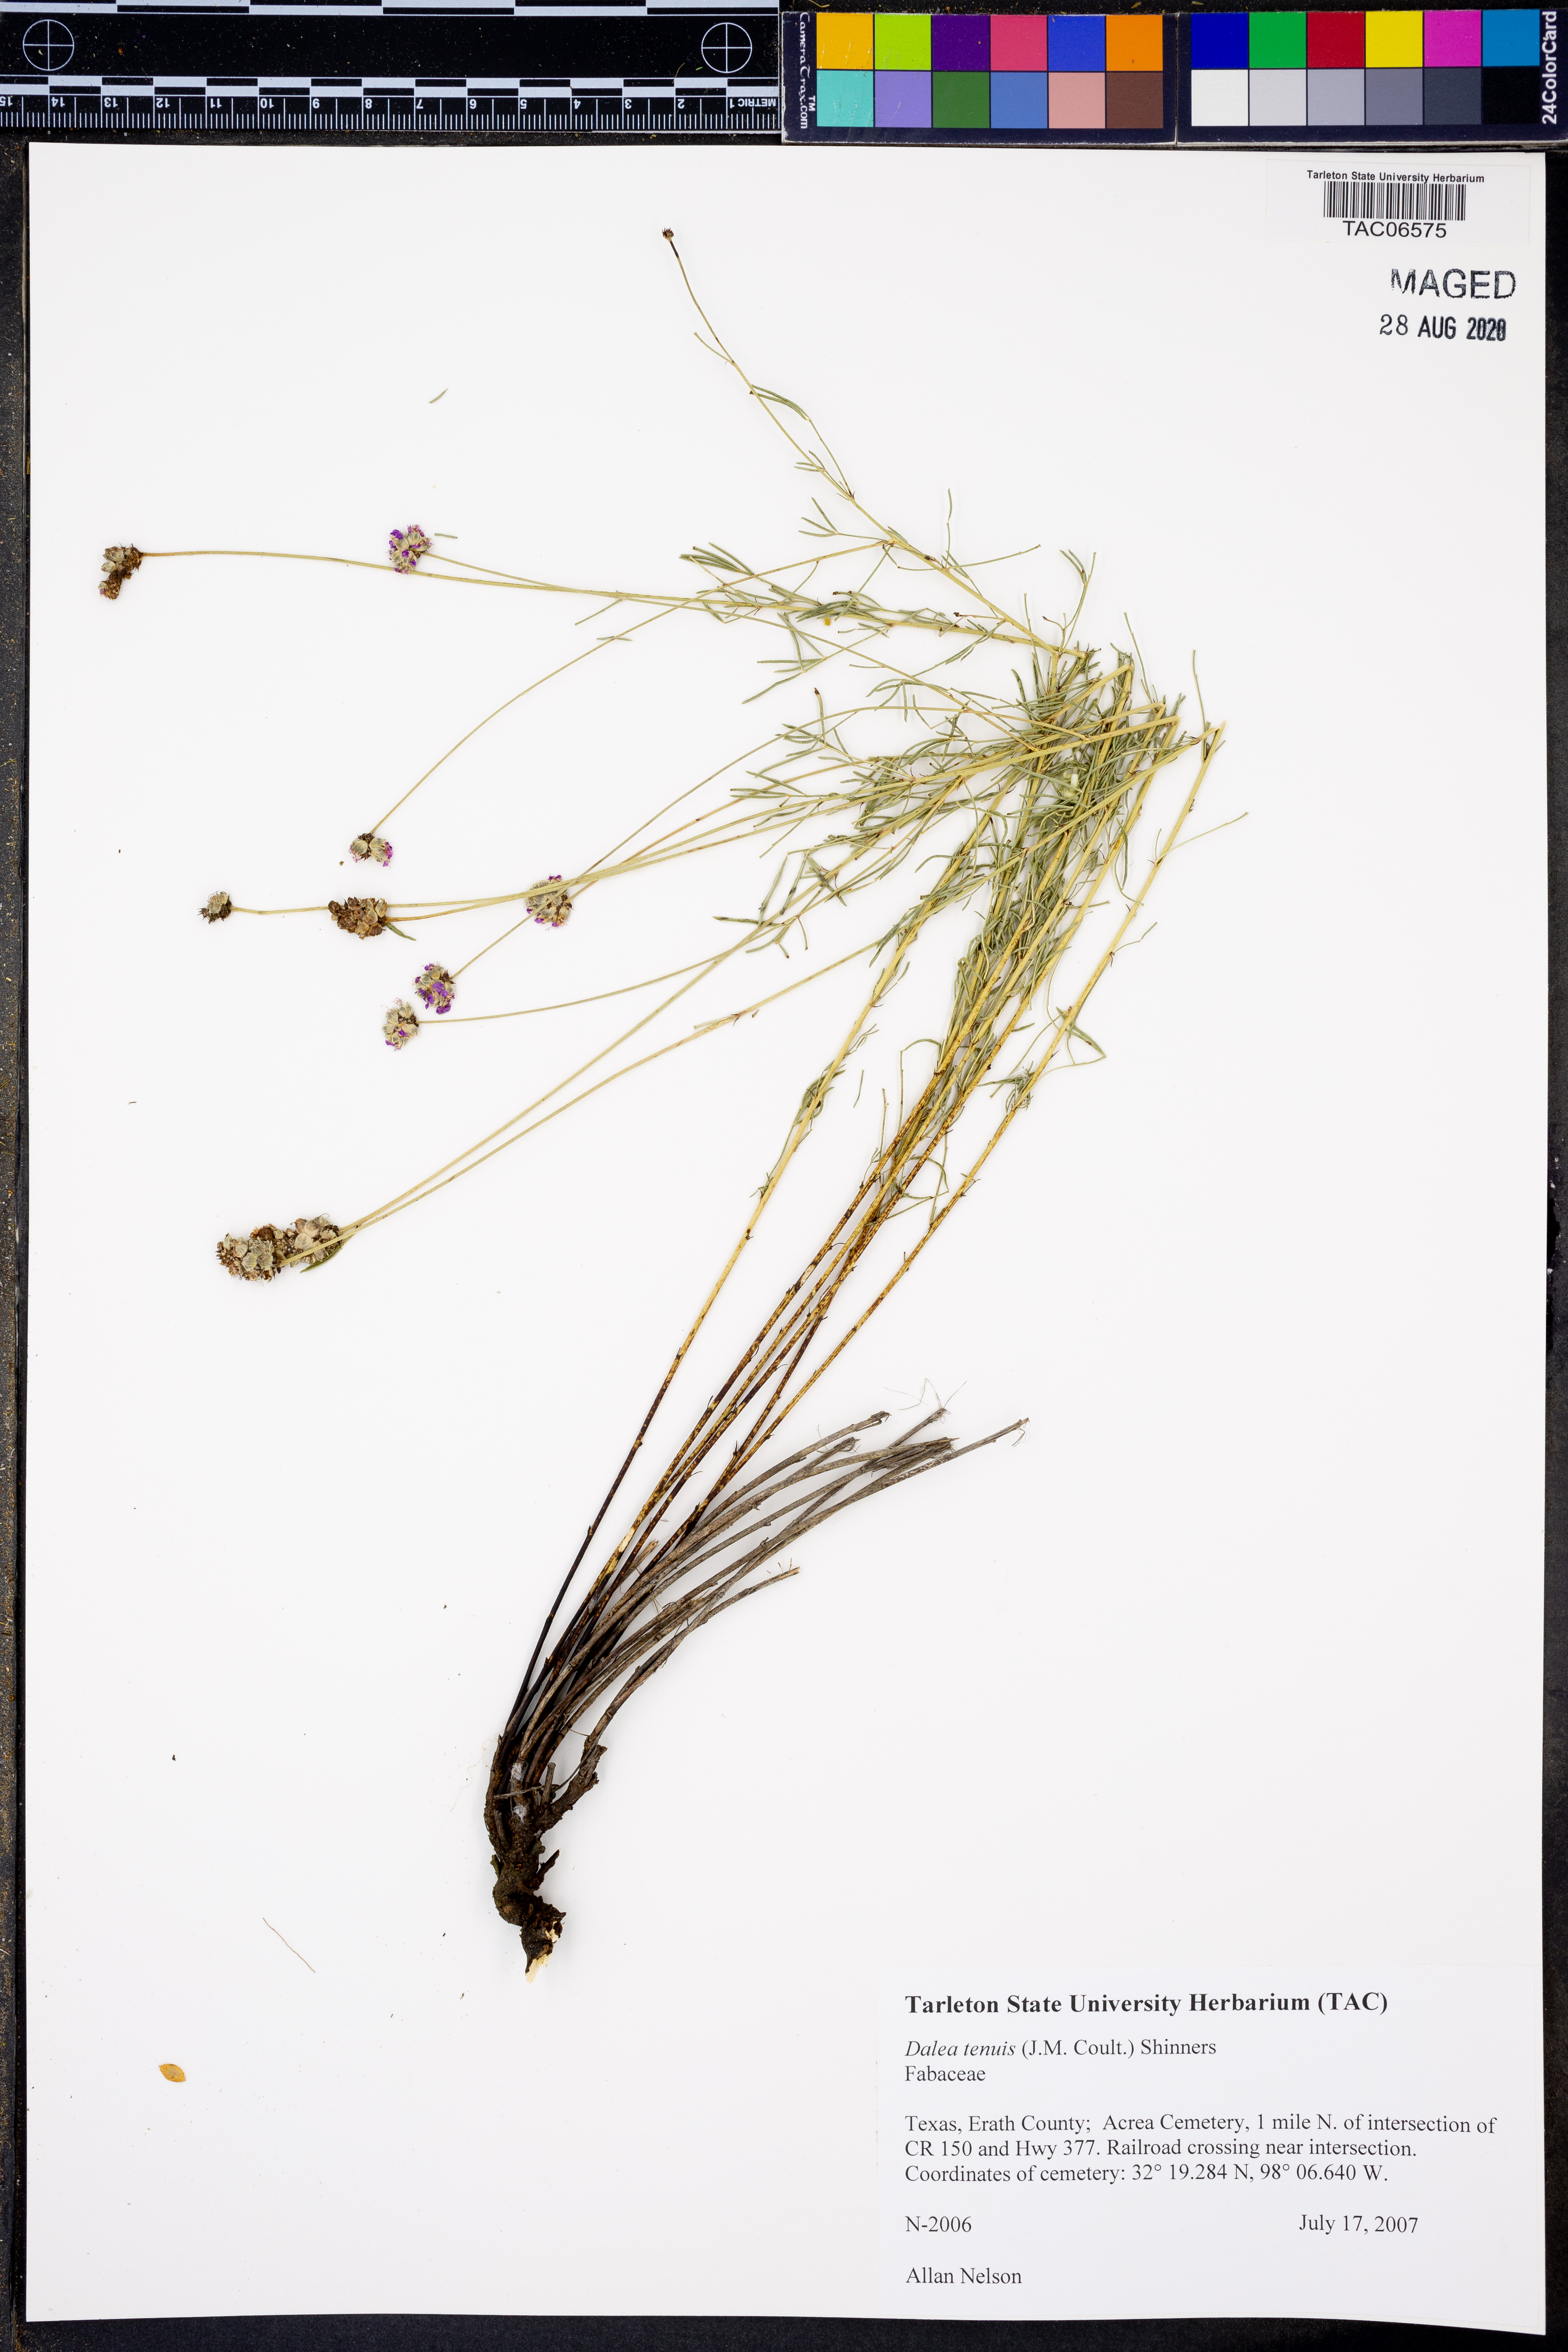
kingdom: Plantae
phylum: Tracheophyta
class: Magnoliopsida
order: Fabales
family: Fabaceae
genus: Dalea
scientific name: Dalea tenuis
